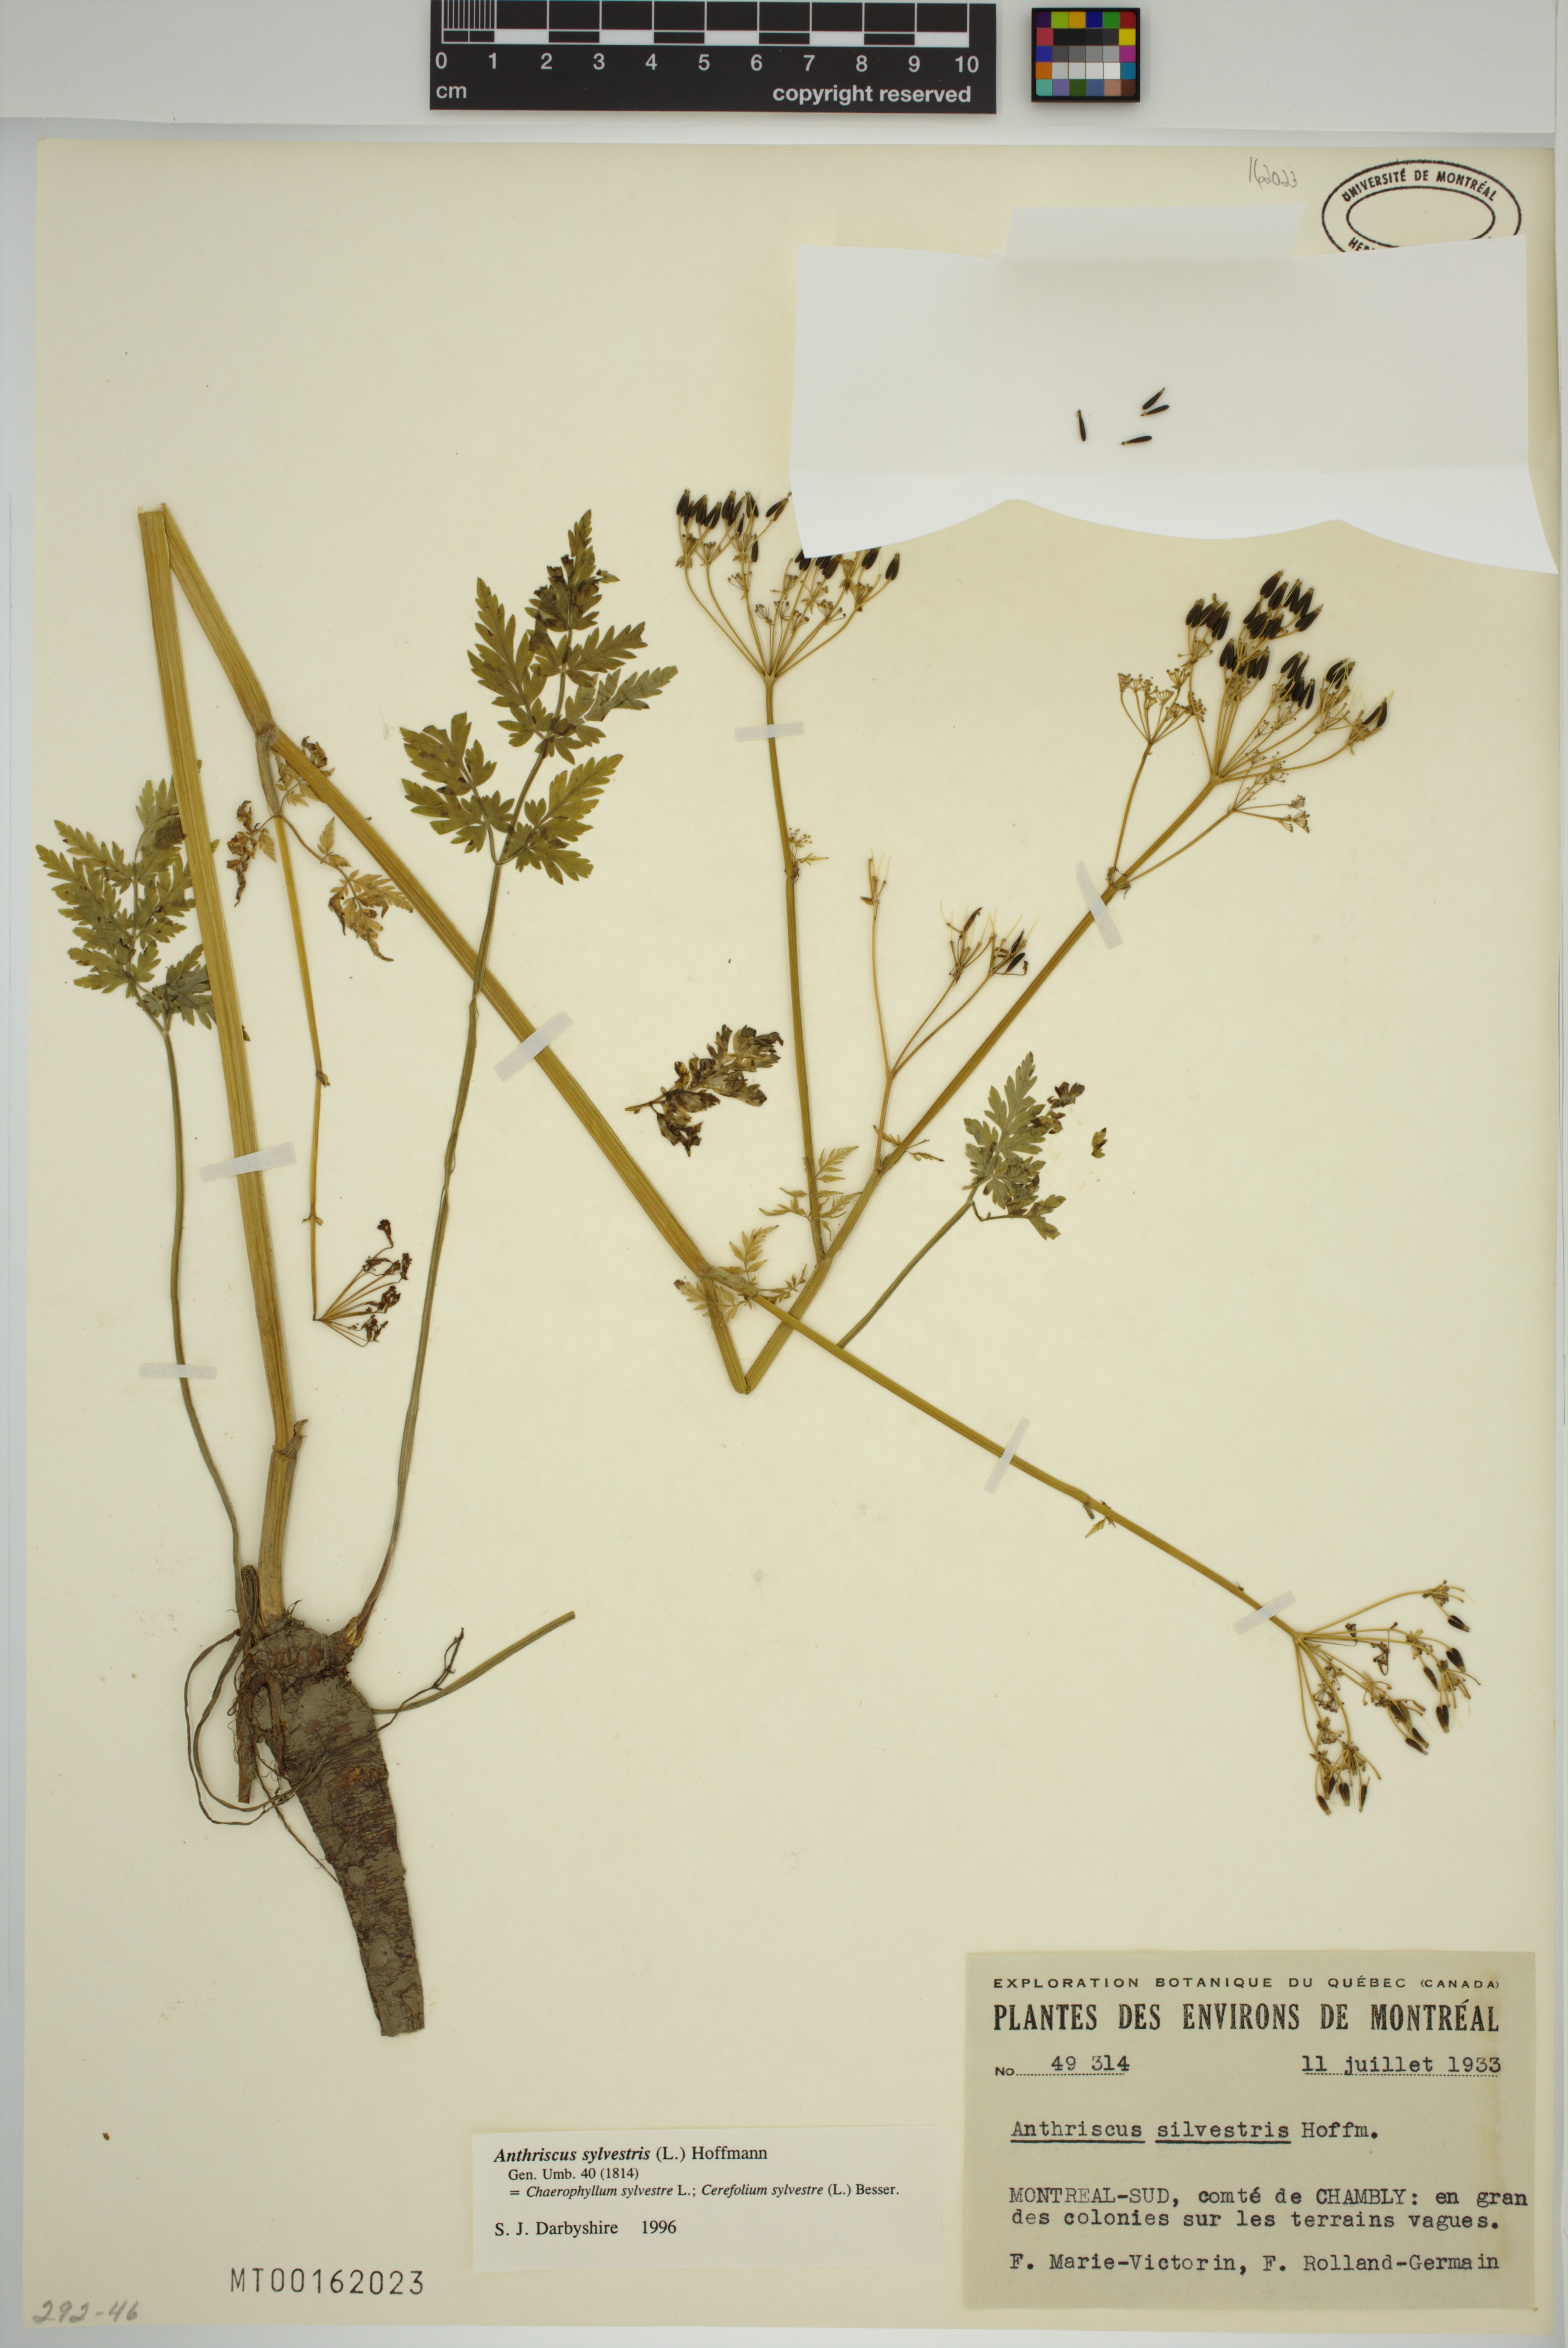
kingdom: Plantae
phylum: Tracheophyta
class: Magnoliopsida
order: Apiales
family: Apiaceae
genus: Anthriscus
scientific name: Anthriscus sylvestris
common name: Cow parsley
